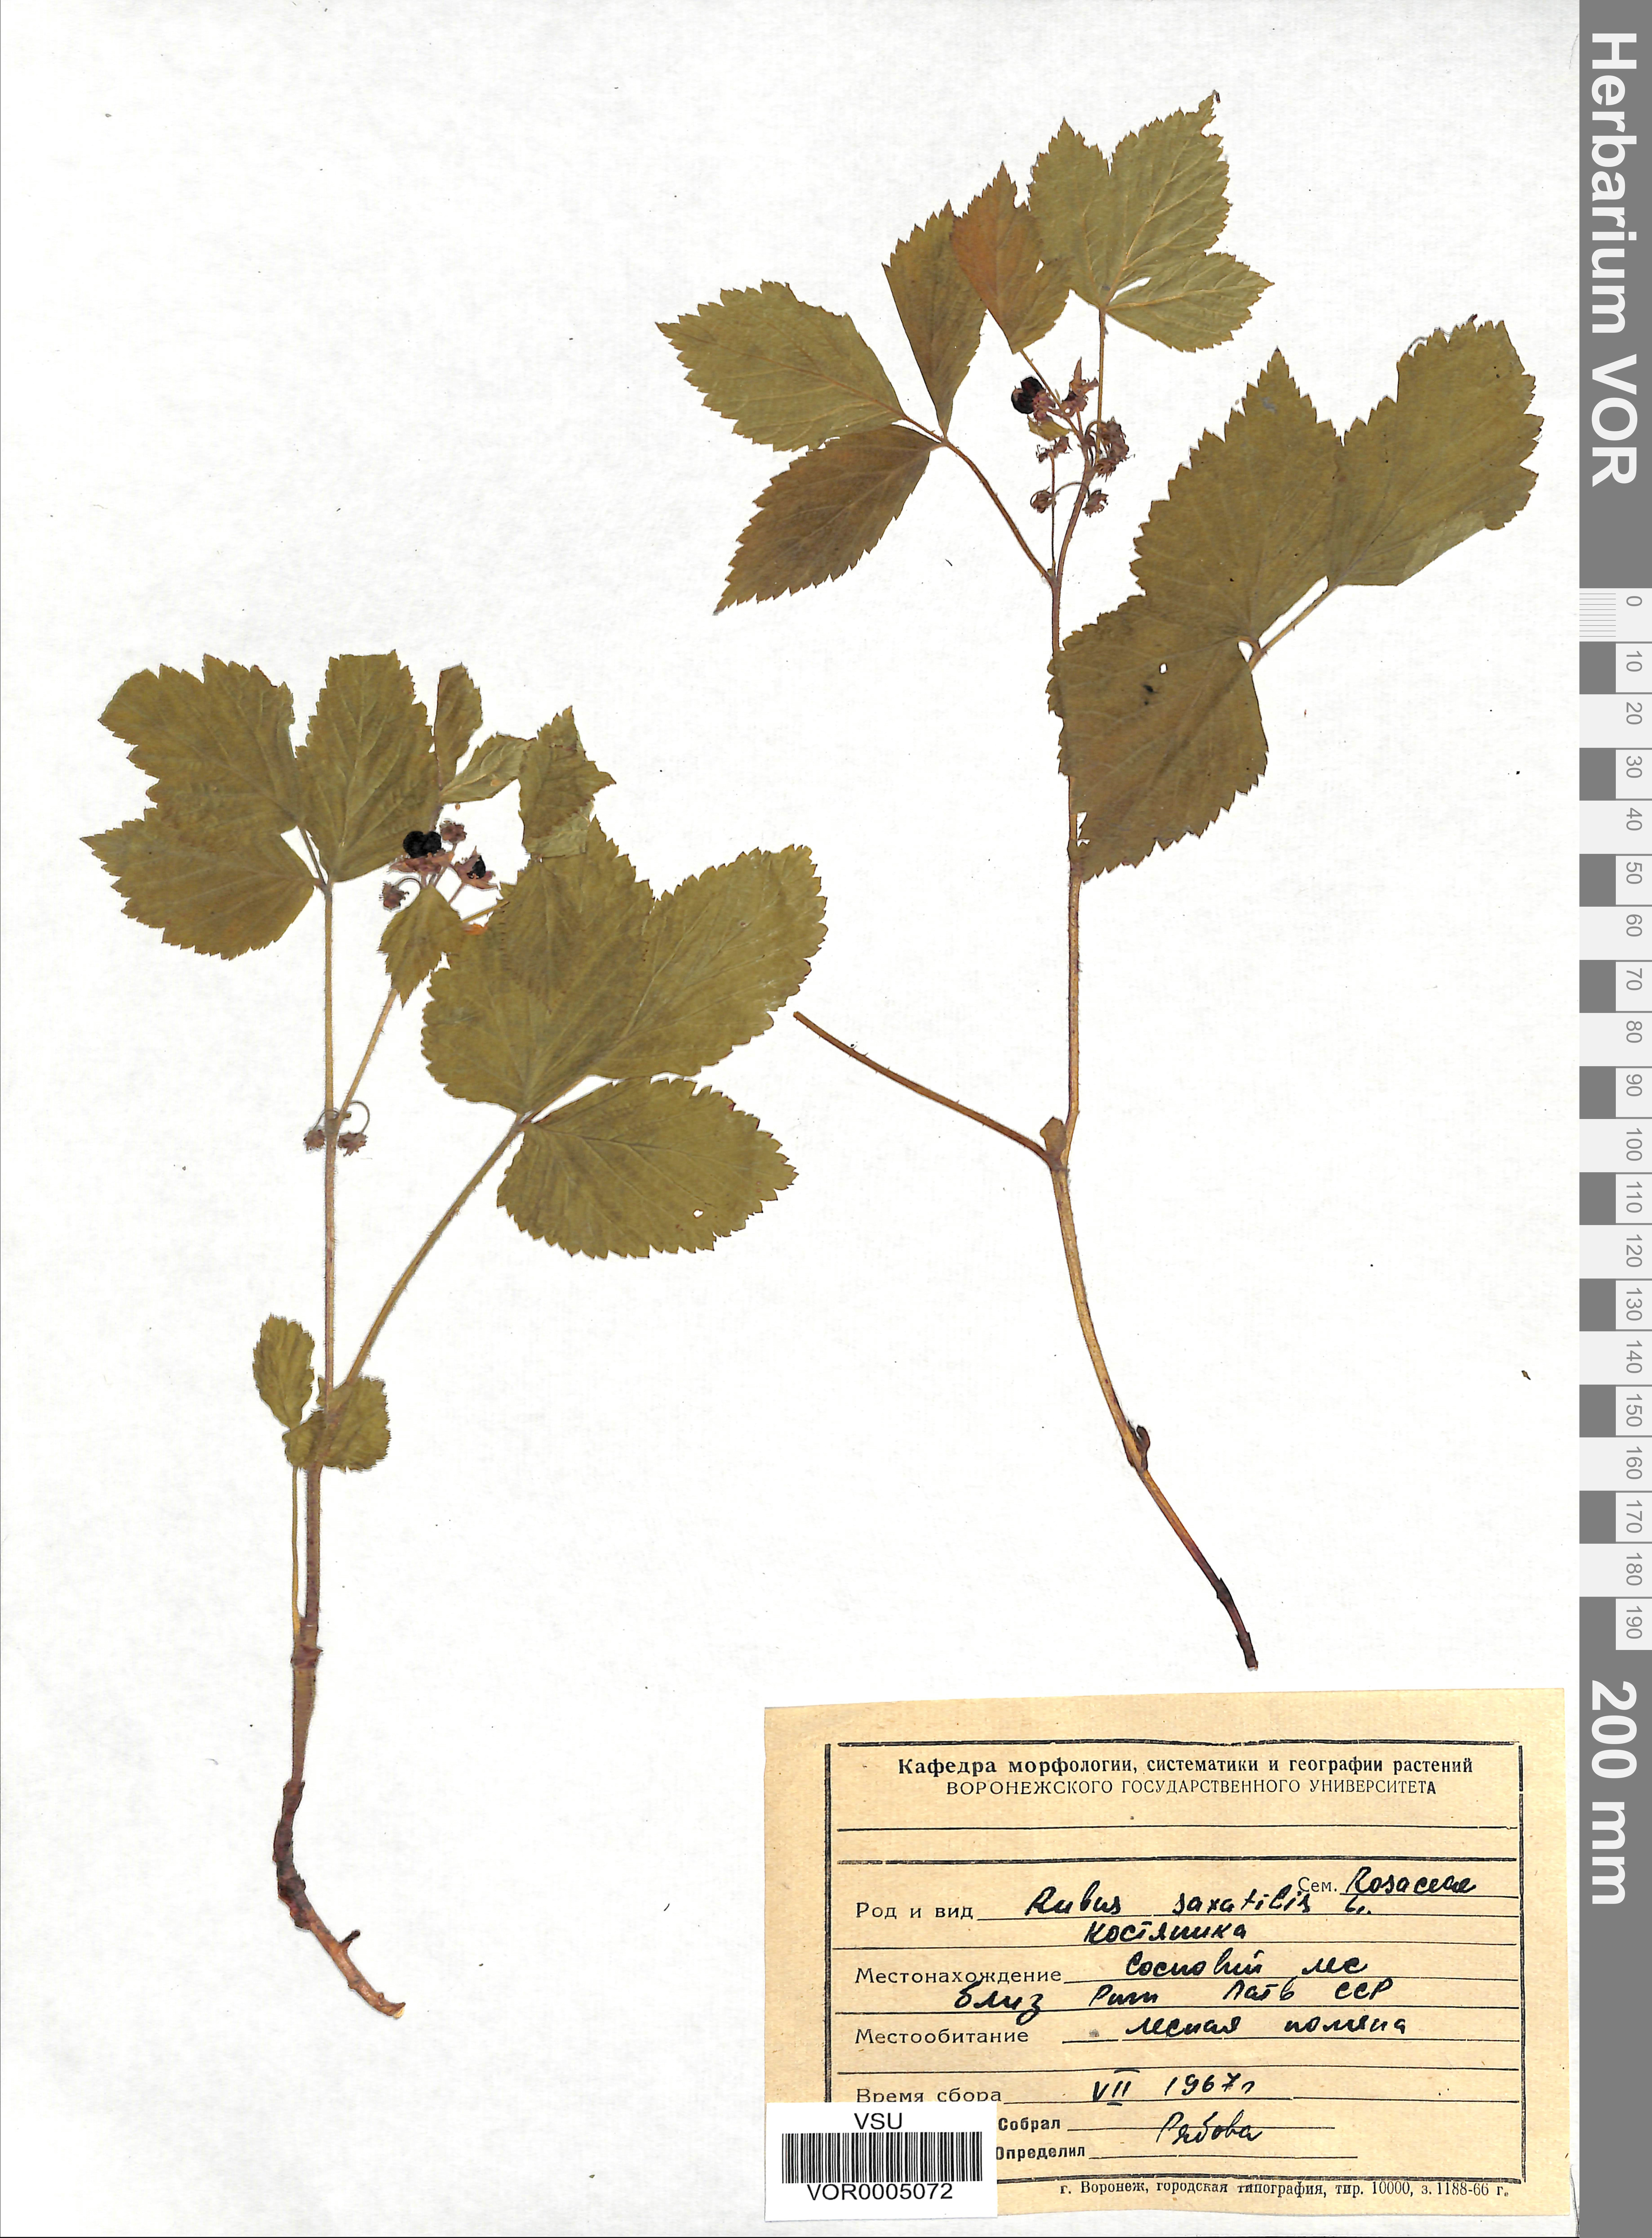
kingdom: Plantae
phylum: Tracheophyta
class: Magnoliopsida
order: Rosales
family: Rosaceae
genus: Rubus
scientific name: Rubus saxatilis
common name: Stone bramble
